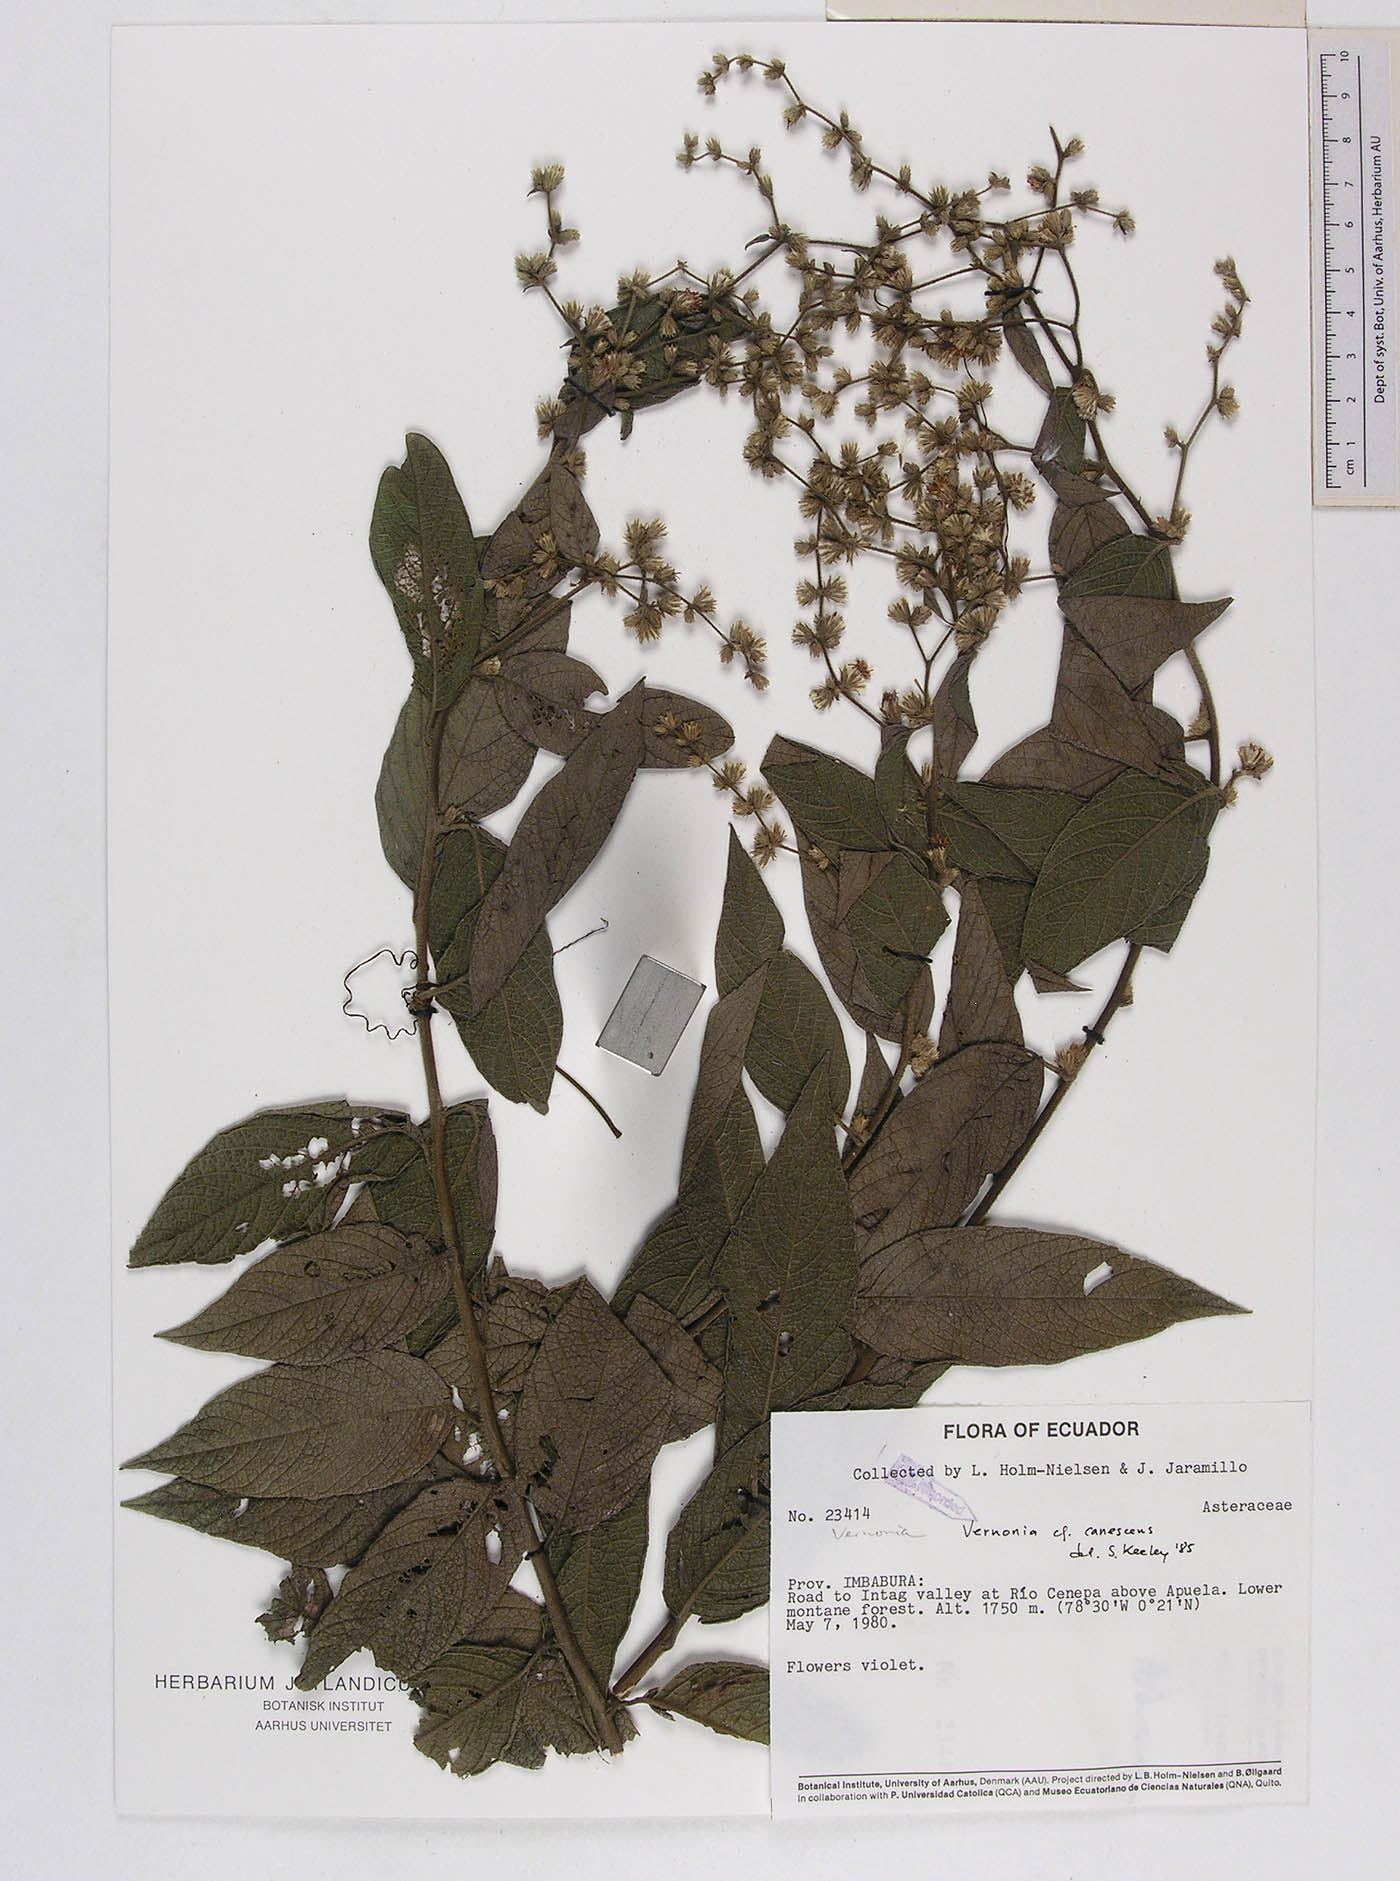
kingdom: Plantae
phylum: Tracheophyta
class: Magnoliopsida
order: Asterales
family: Asteraceae
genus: Lepidaploa
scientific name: Lepidaploa canescens
